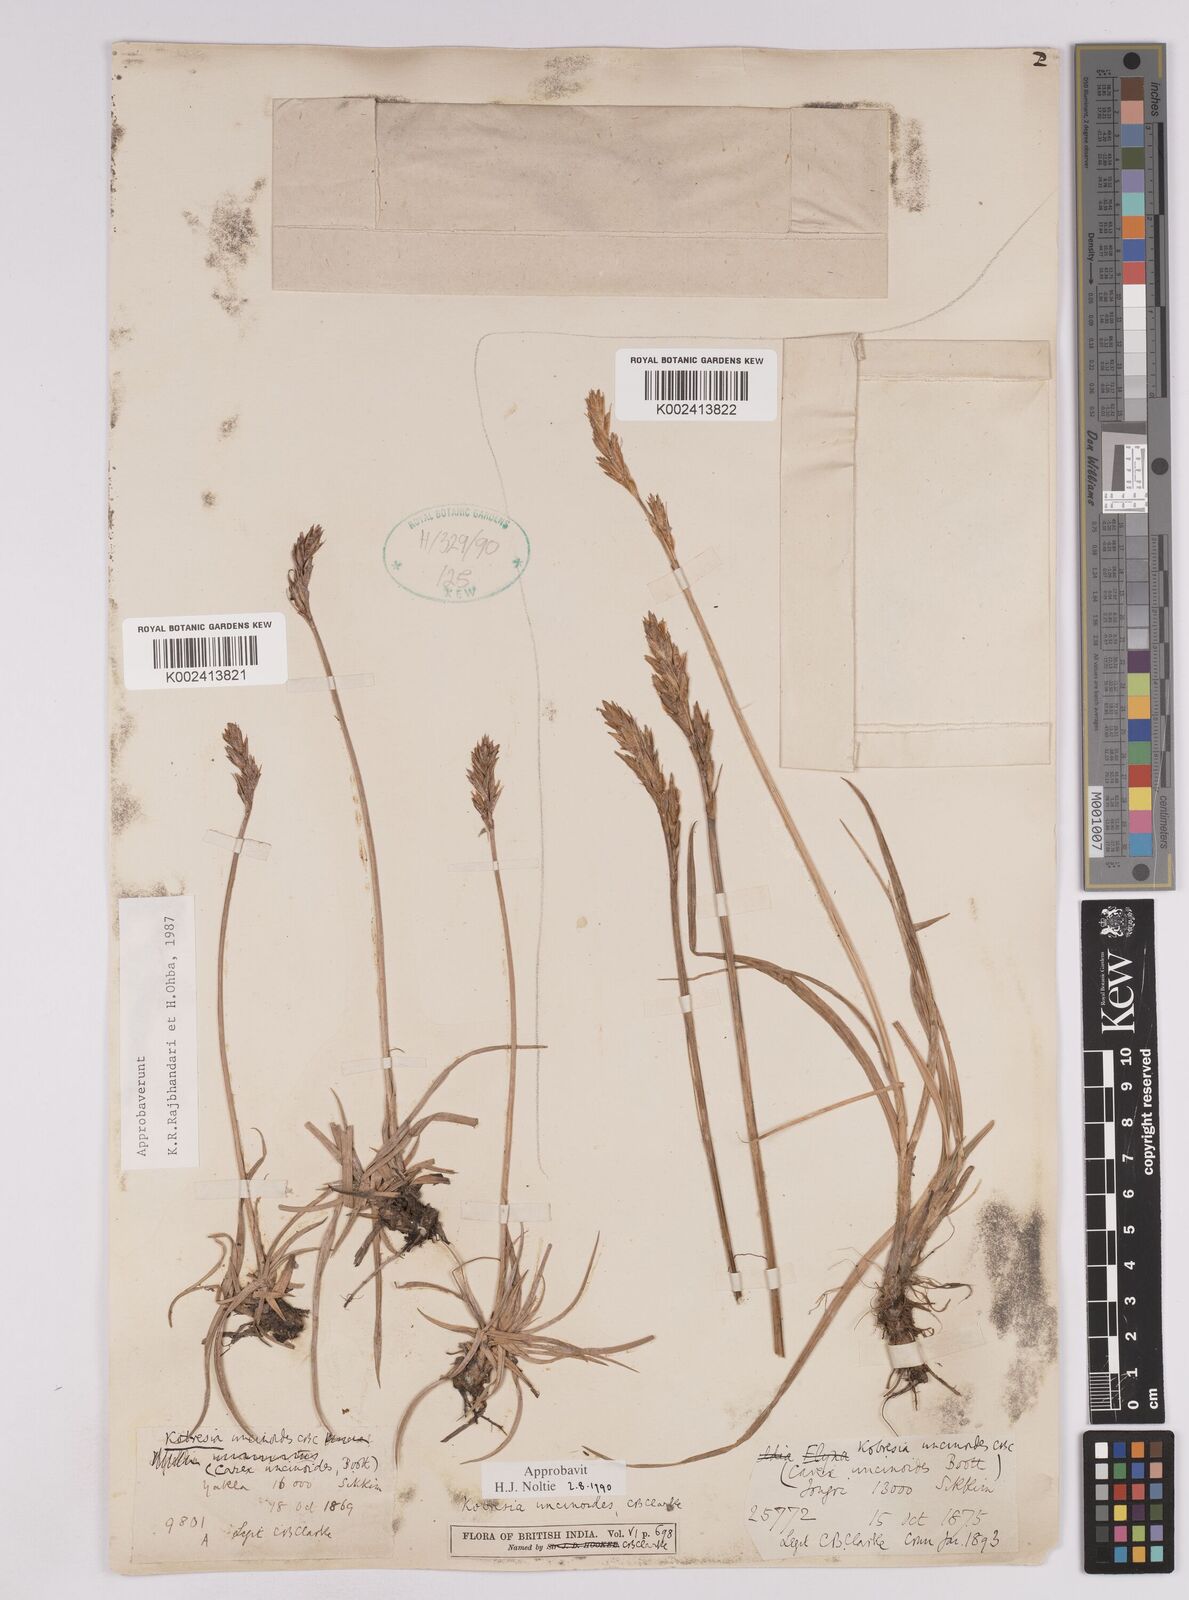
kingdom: Plantae
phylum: Tracheophyta
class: Liliopsida
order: Poales
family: Cyperaceae
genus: Carex
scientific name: Carex uncinioides
